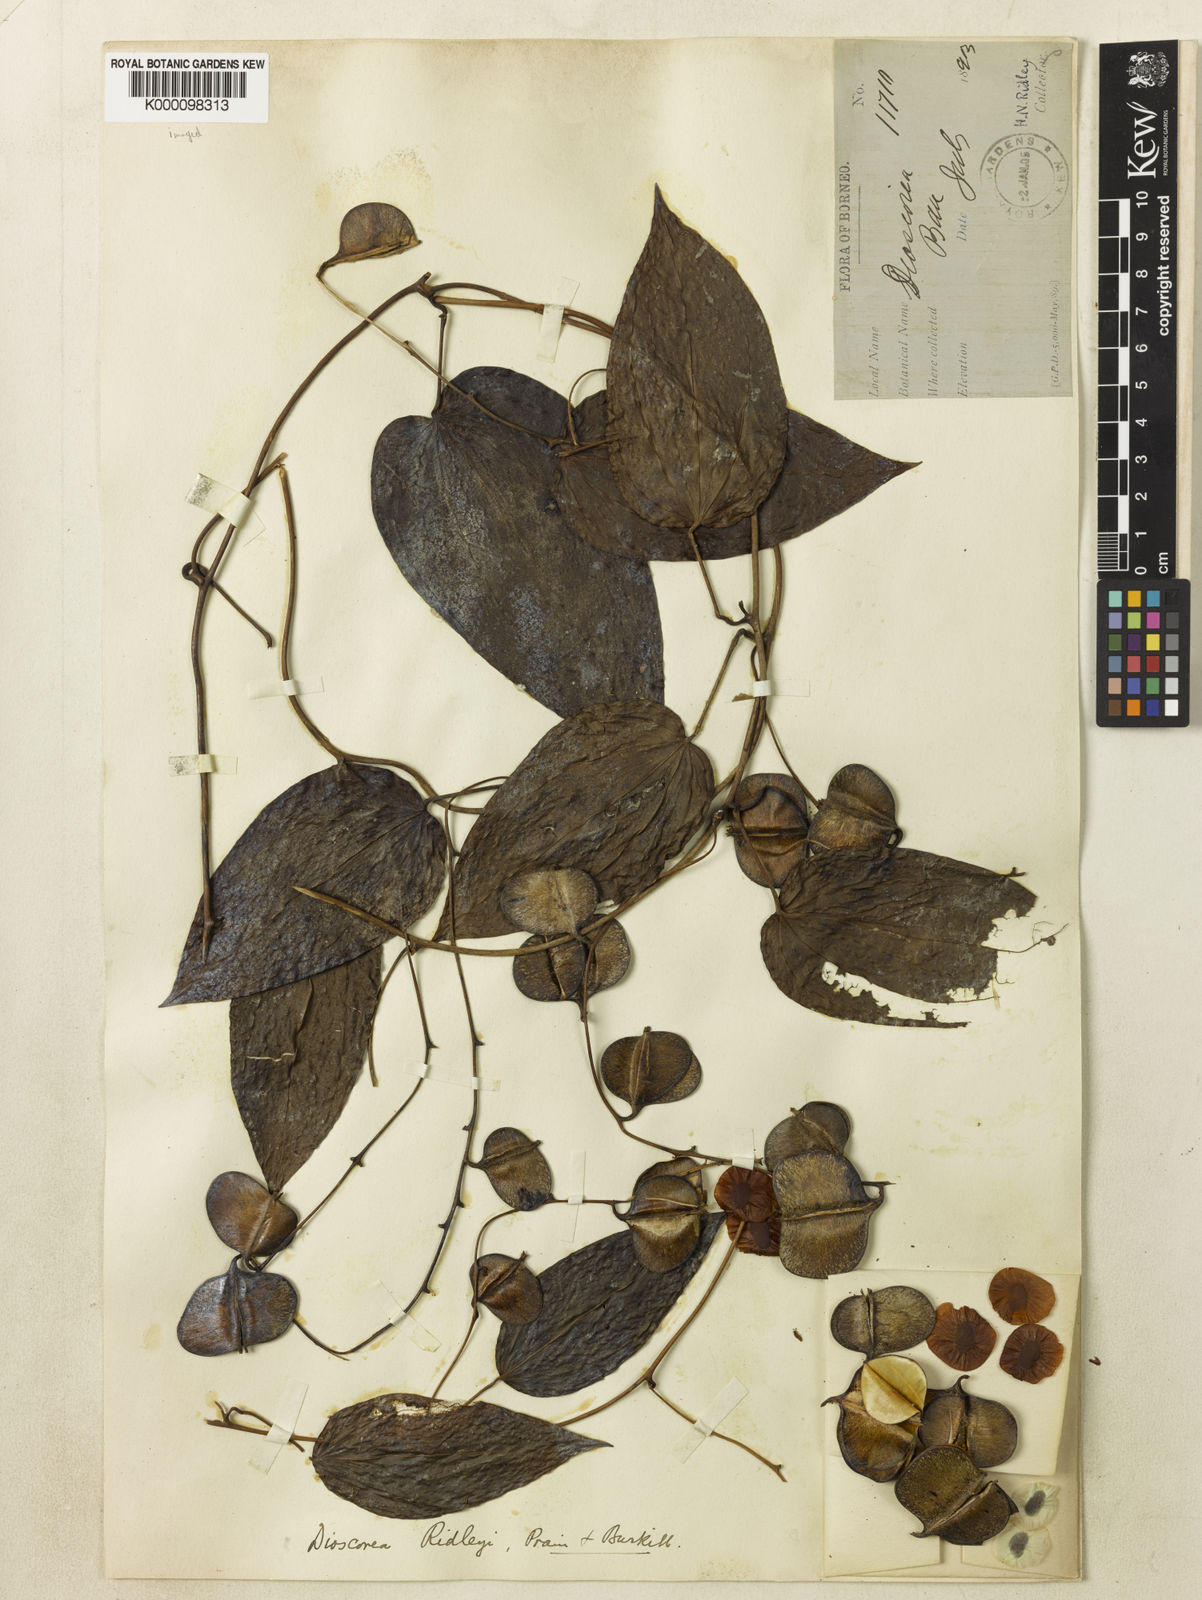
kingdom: Plantae
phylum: Tracheophyta
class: Liliopsida
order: Dioscoreales
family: Dioscoreaceae
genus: Dioscorea
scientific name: Dioscorea ridleyi
